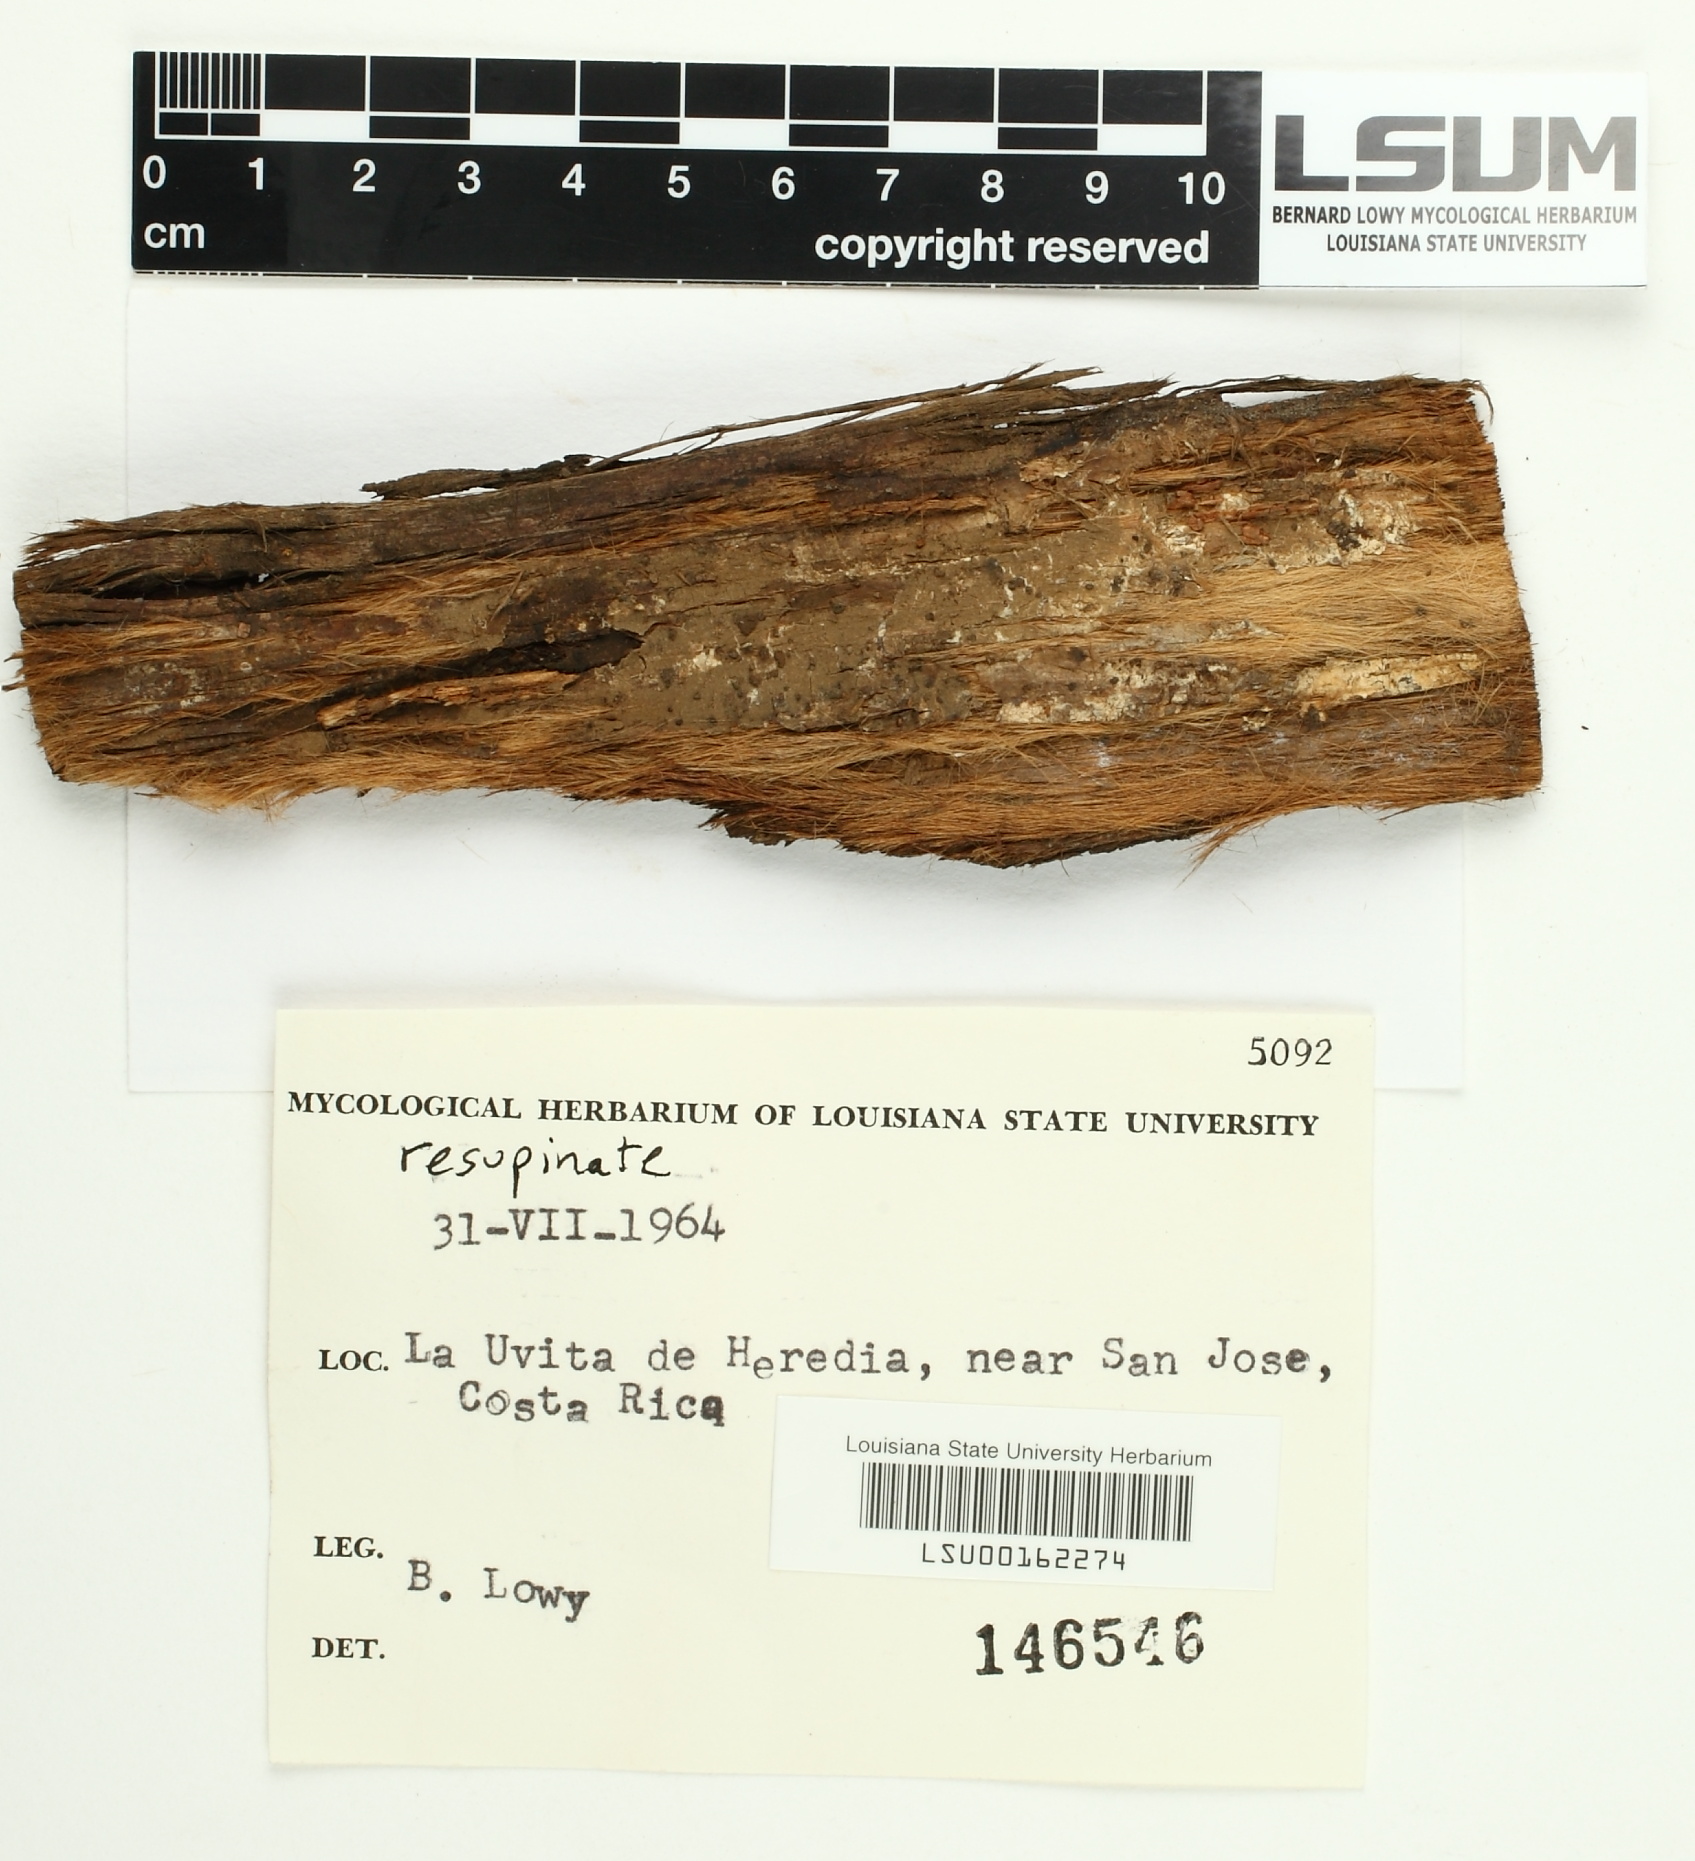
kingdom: Fungi
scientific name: Fungi
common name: Fungi
